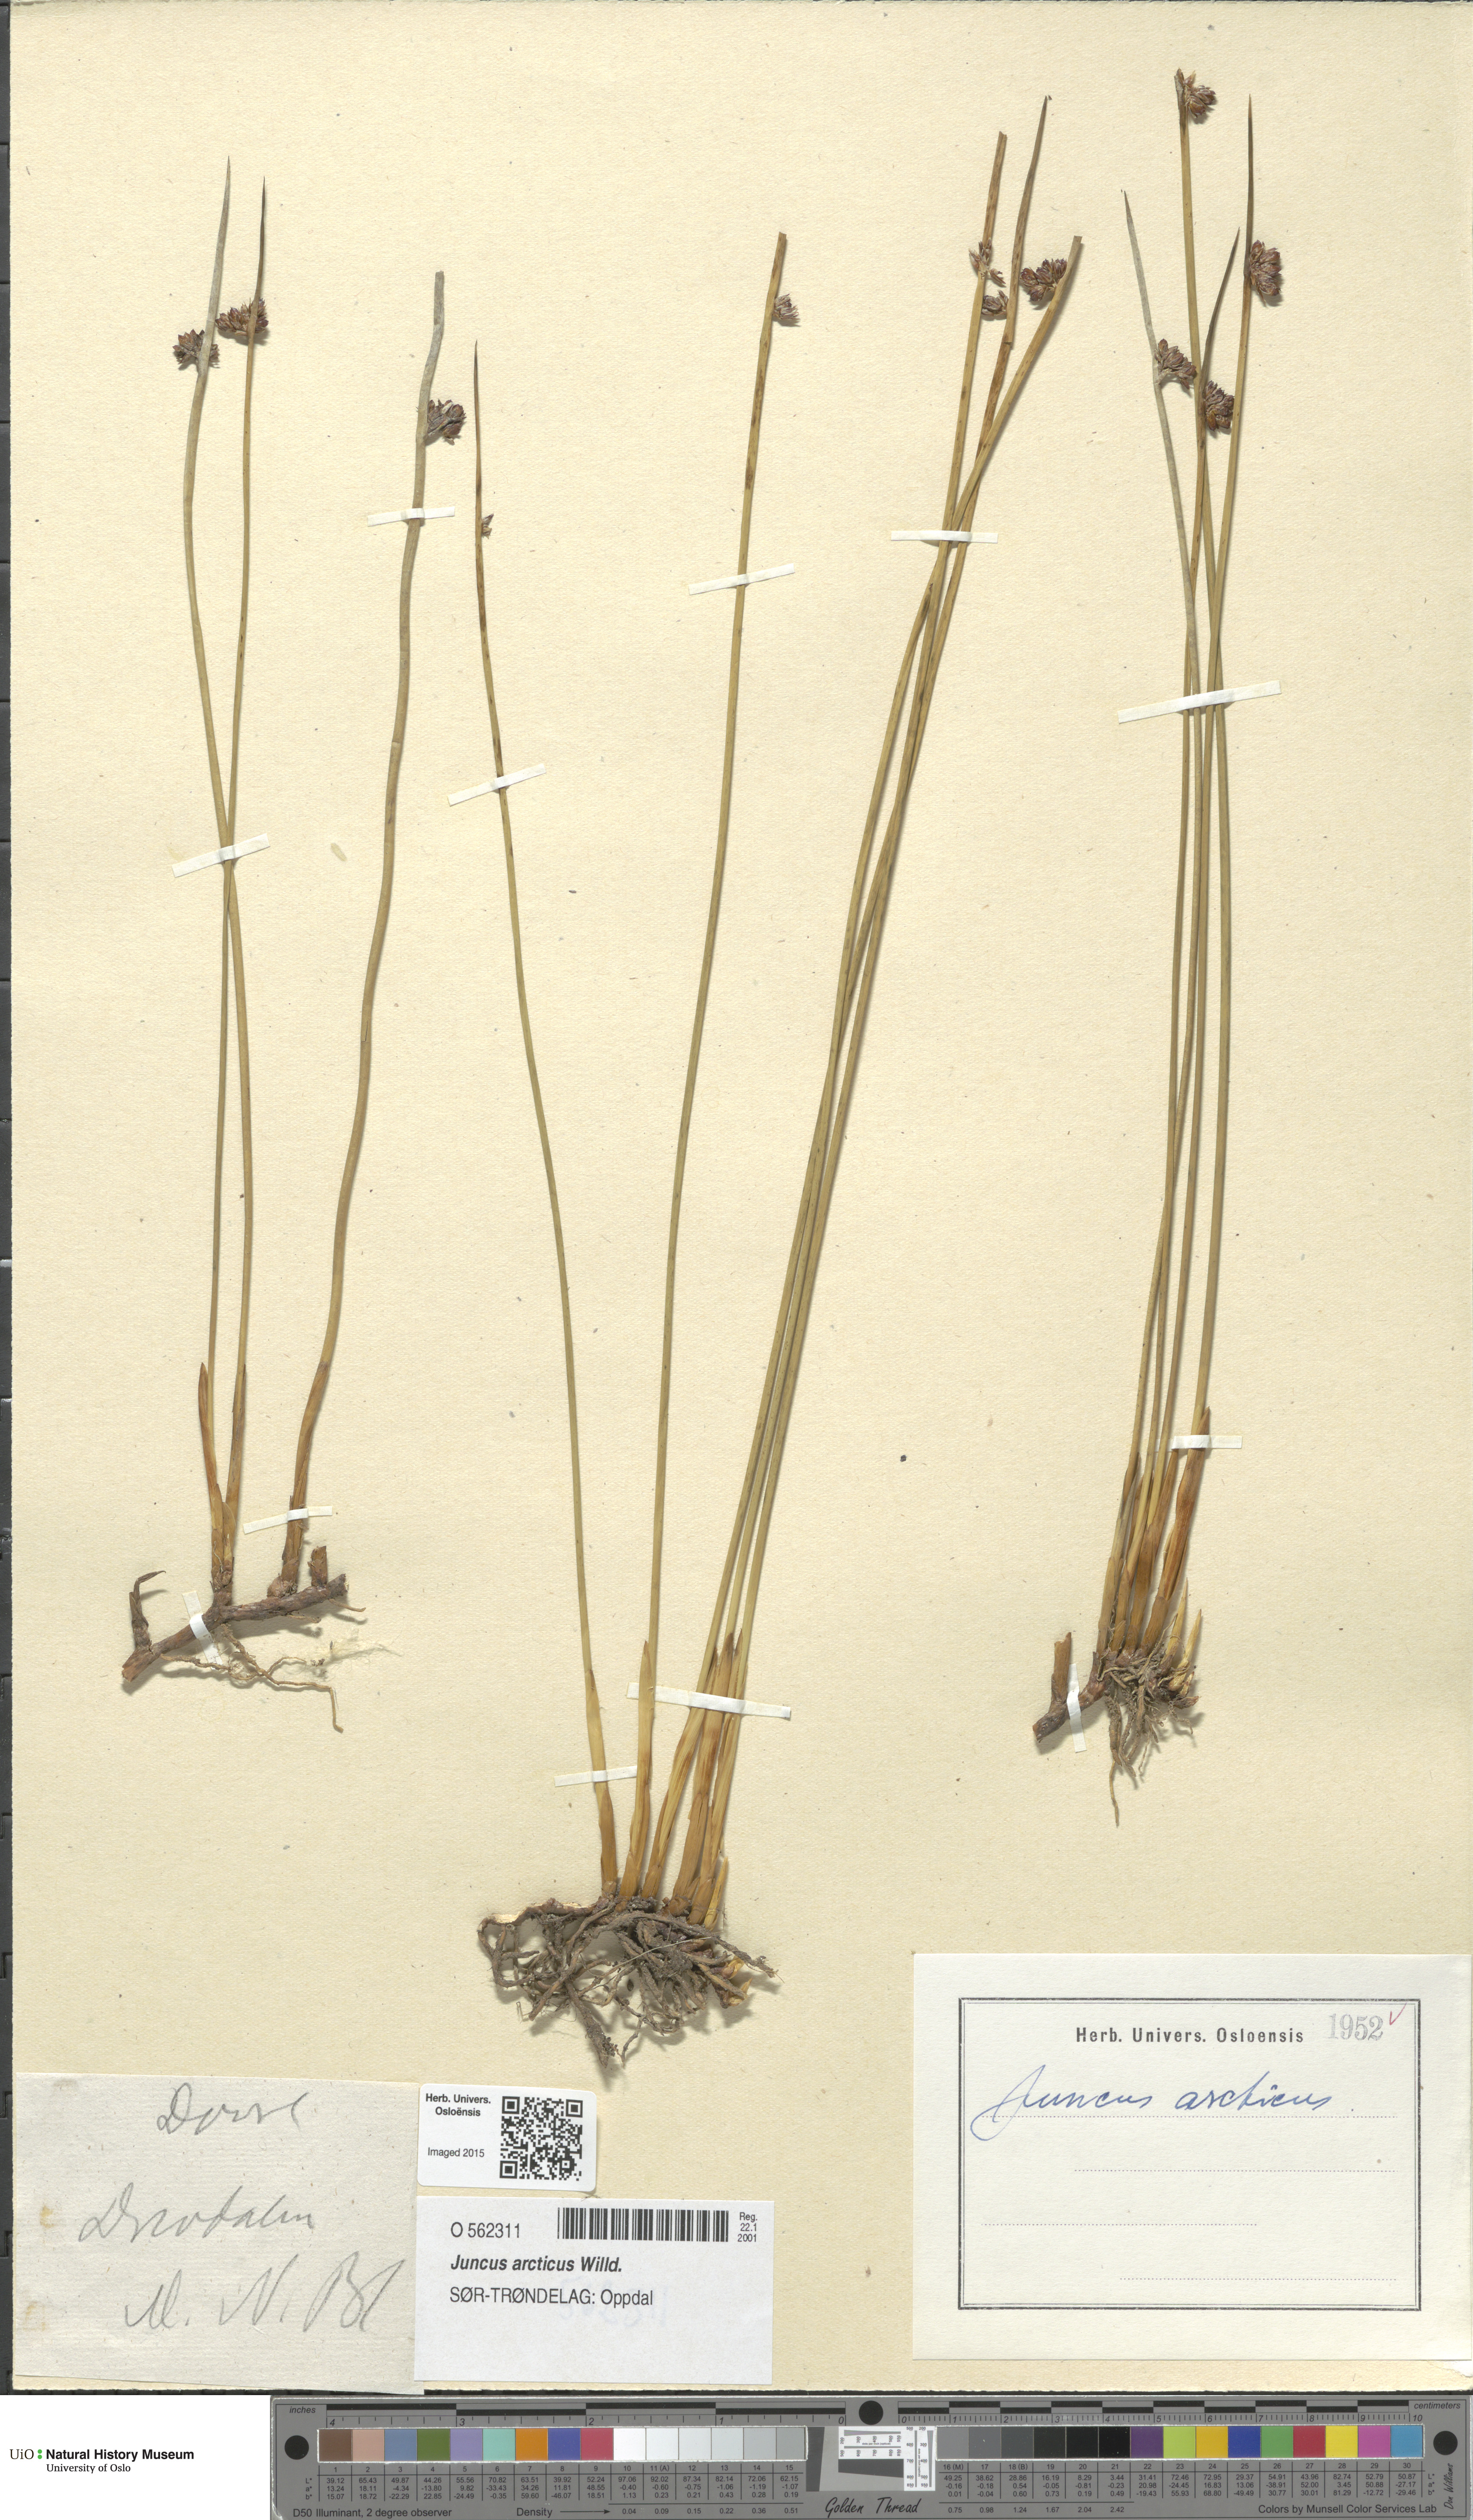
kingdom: Plantae
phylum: Tracheophyta
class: Liliopsida
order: Poales
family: Juncaceae
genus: Juncus
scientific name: Juncus arcticus
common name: Arctic rush
